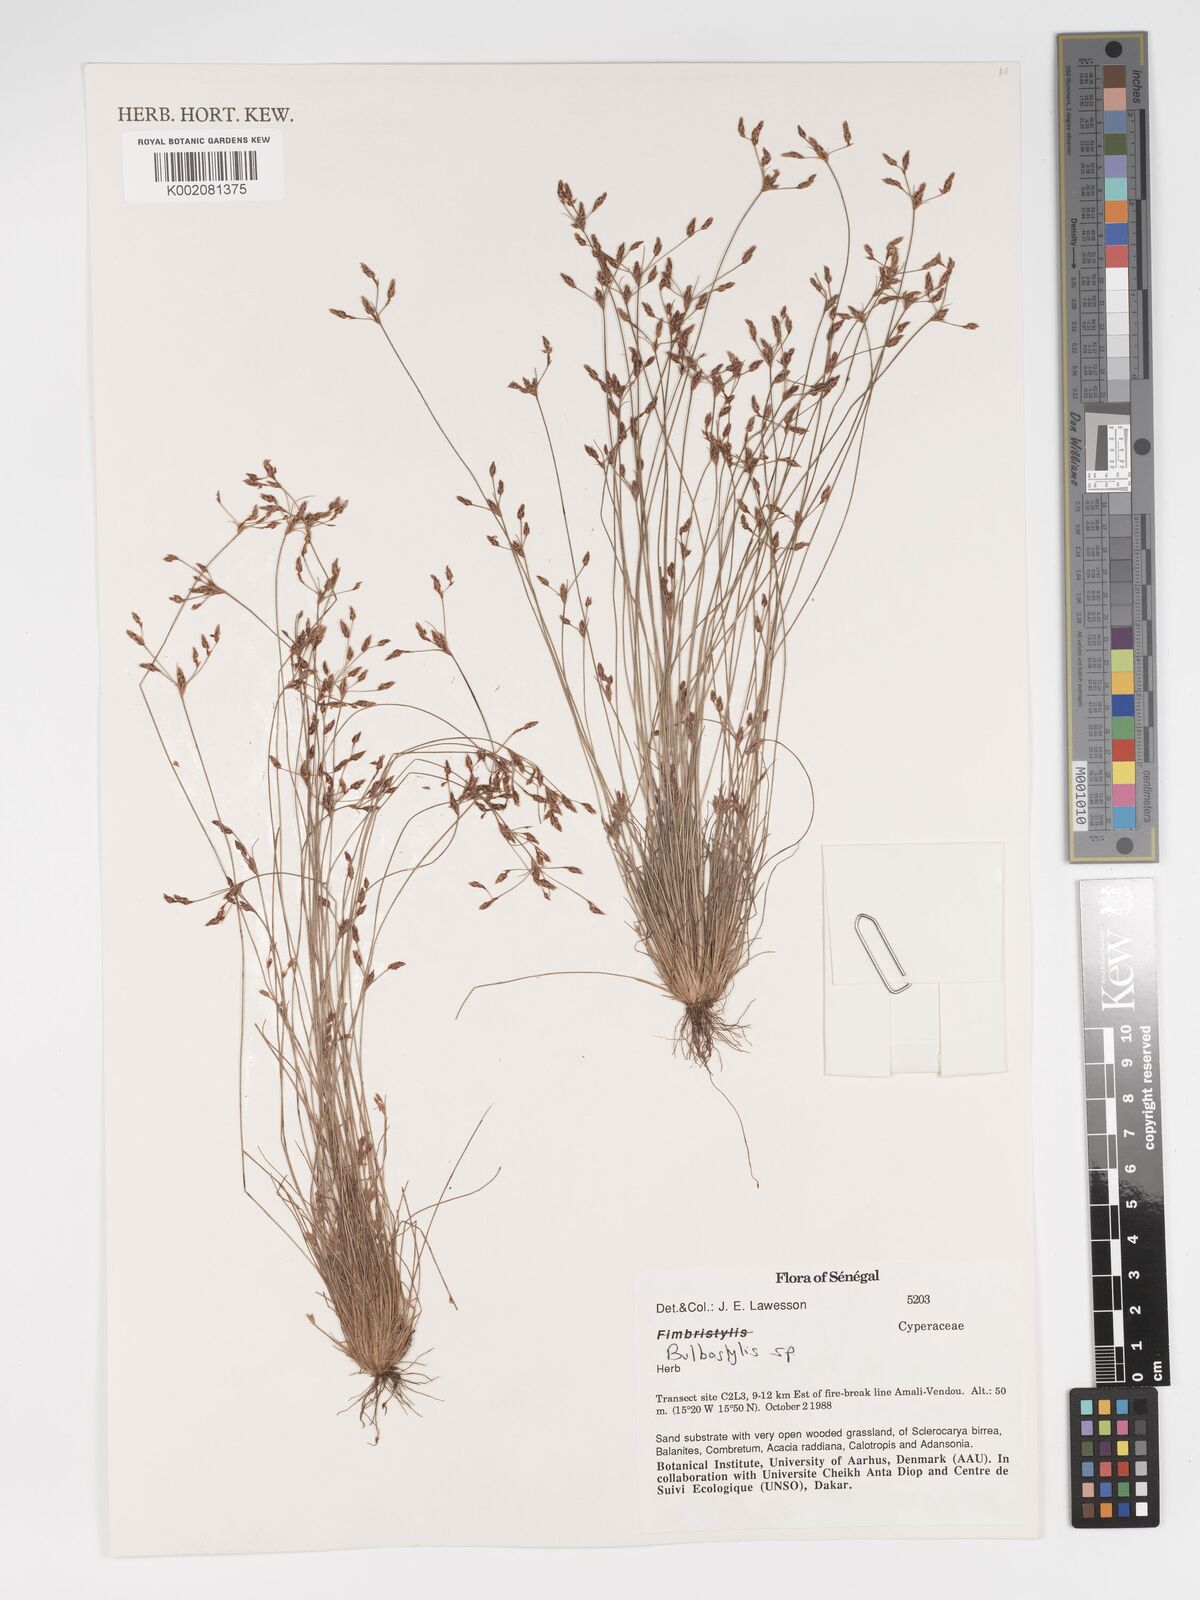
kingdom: Plantae
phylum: Tracheophyta
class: Liliopsida
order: Poales
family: Cyperaceae
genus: Bulbostylis
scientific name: Bulbostylis
